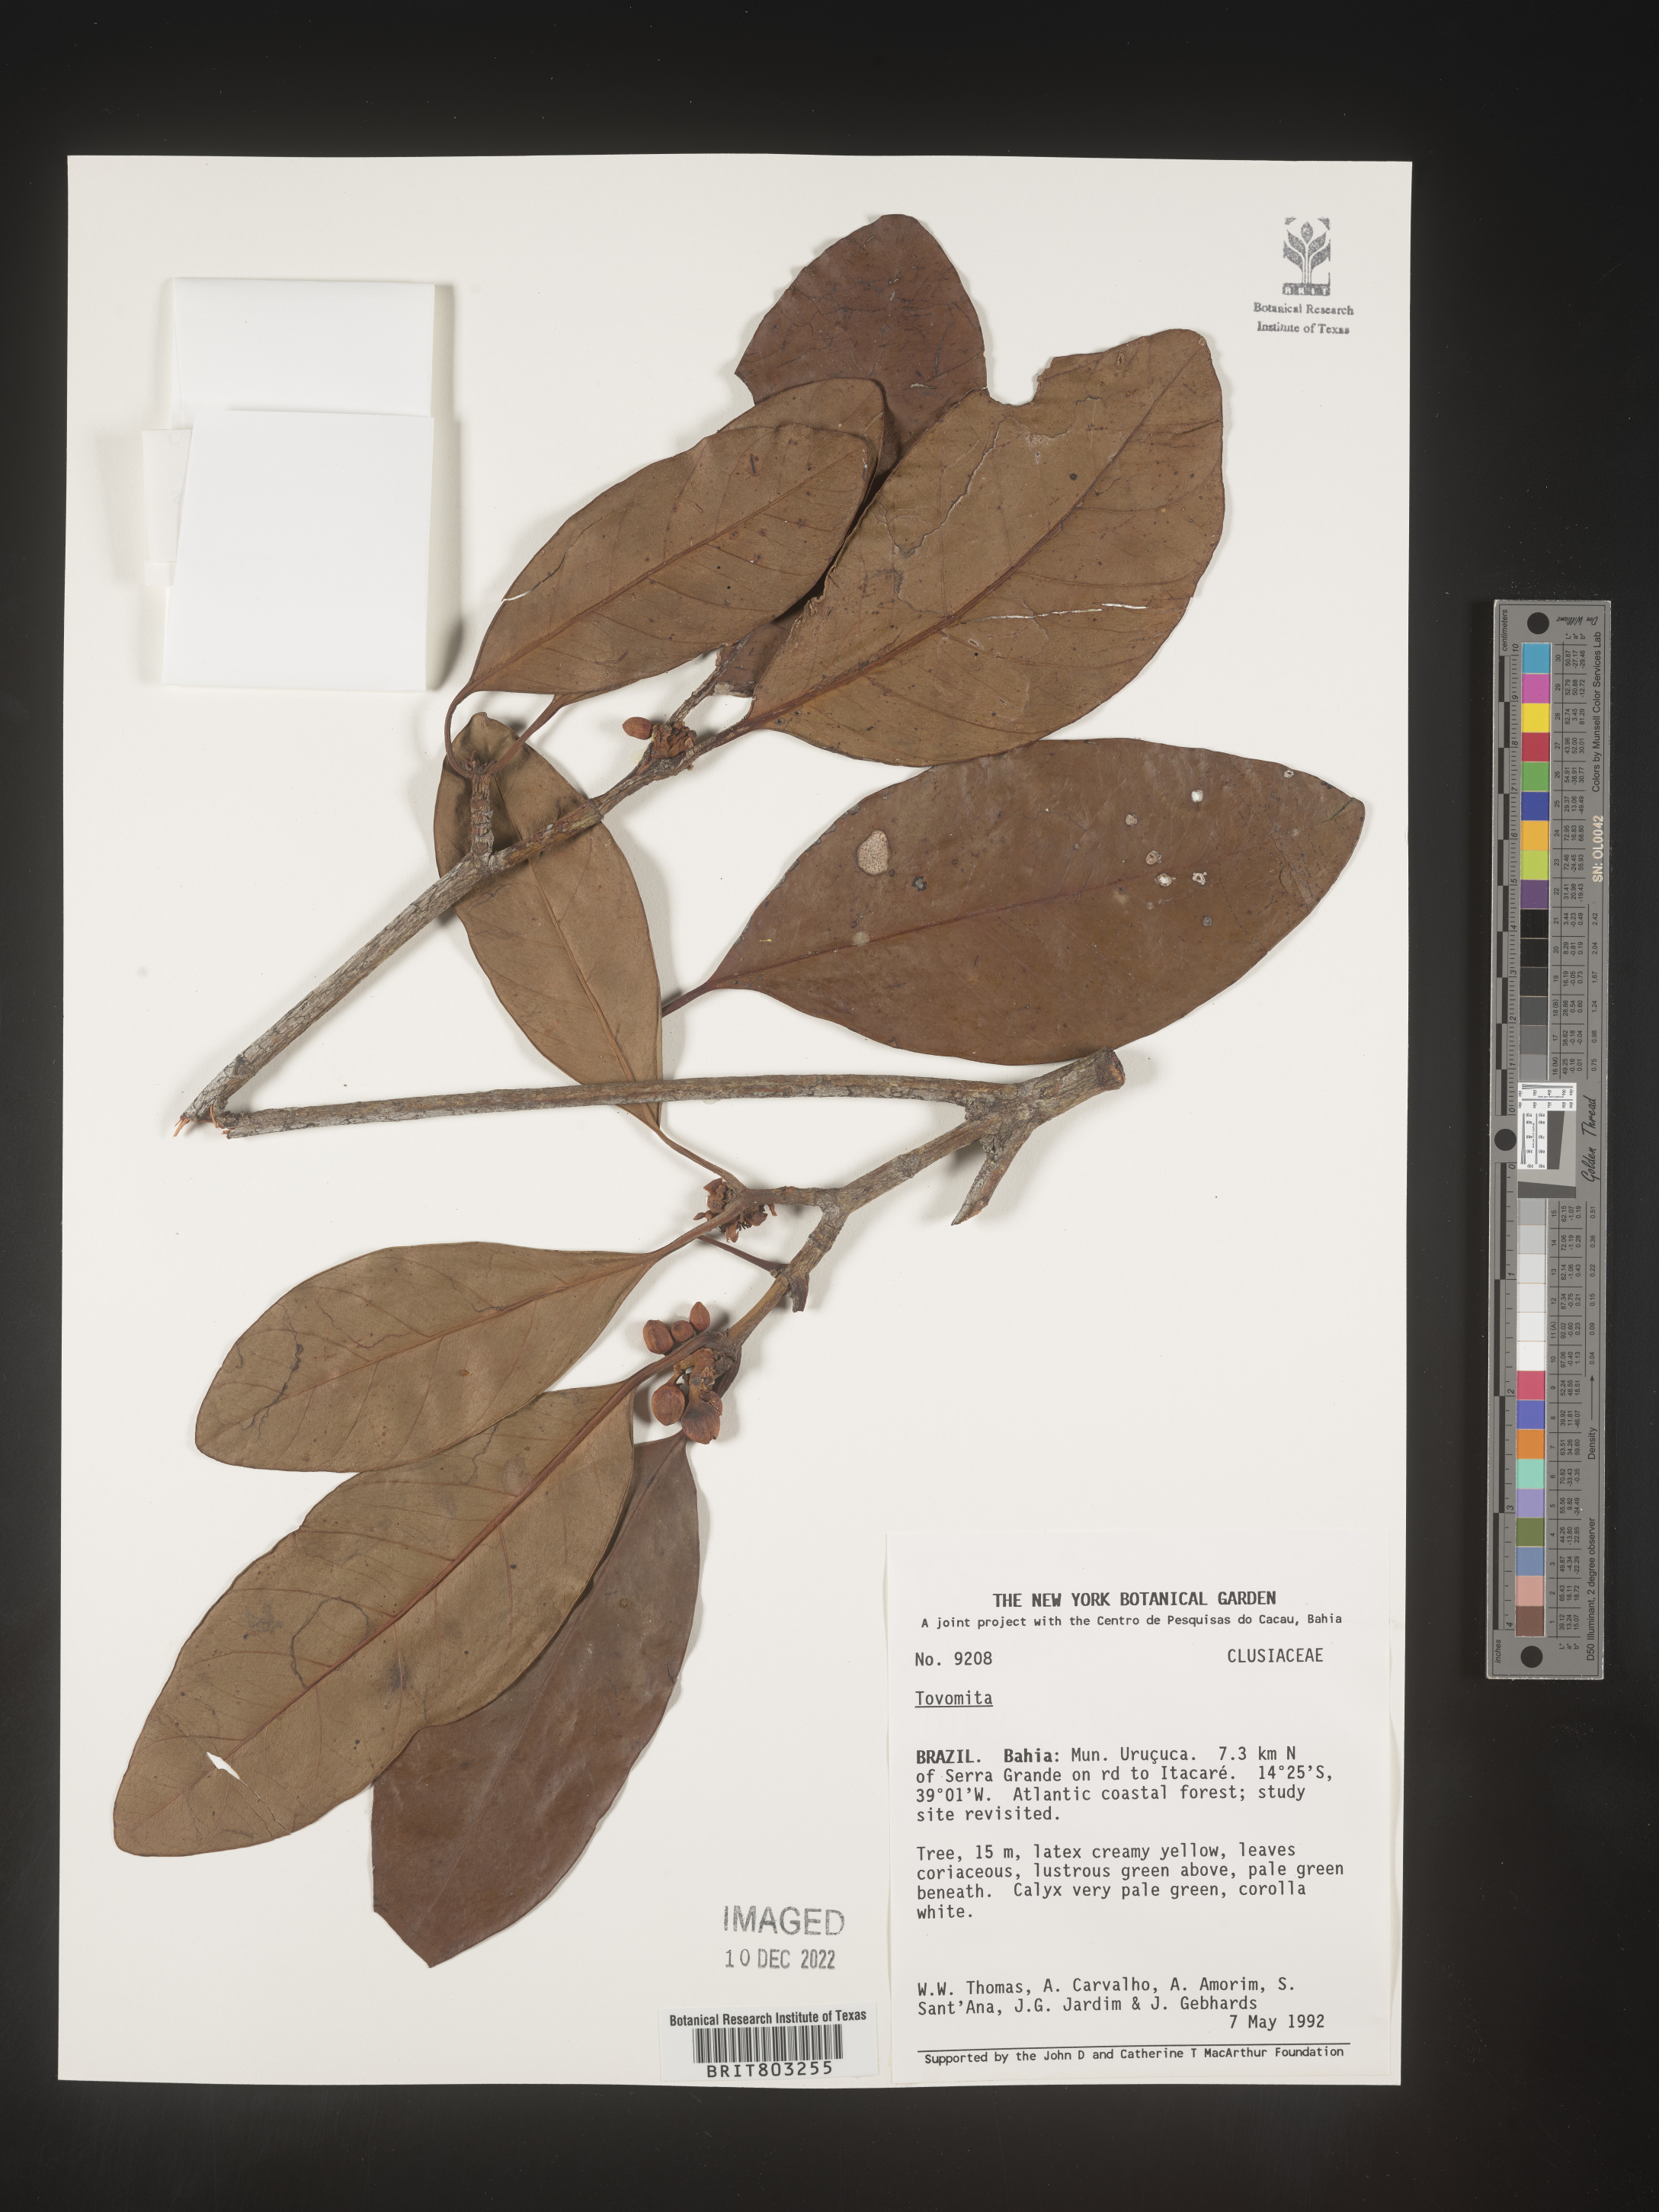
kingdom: Plantae
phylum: Tracheophyta
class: Magnoliopsida
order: Malpighiales
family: Clusiaceae
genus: Tovomita
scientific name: Tovomita
